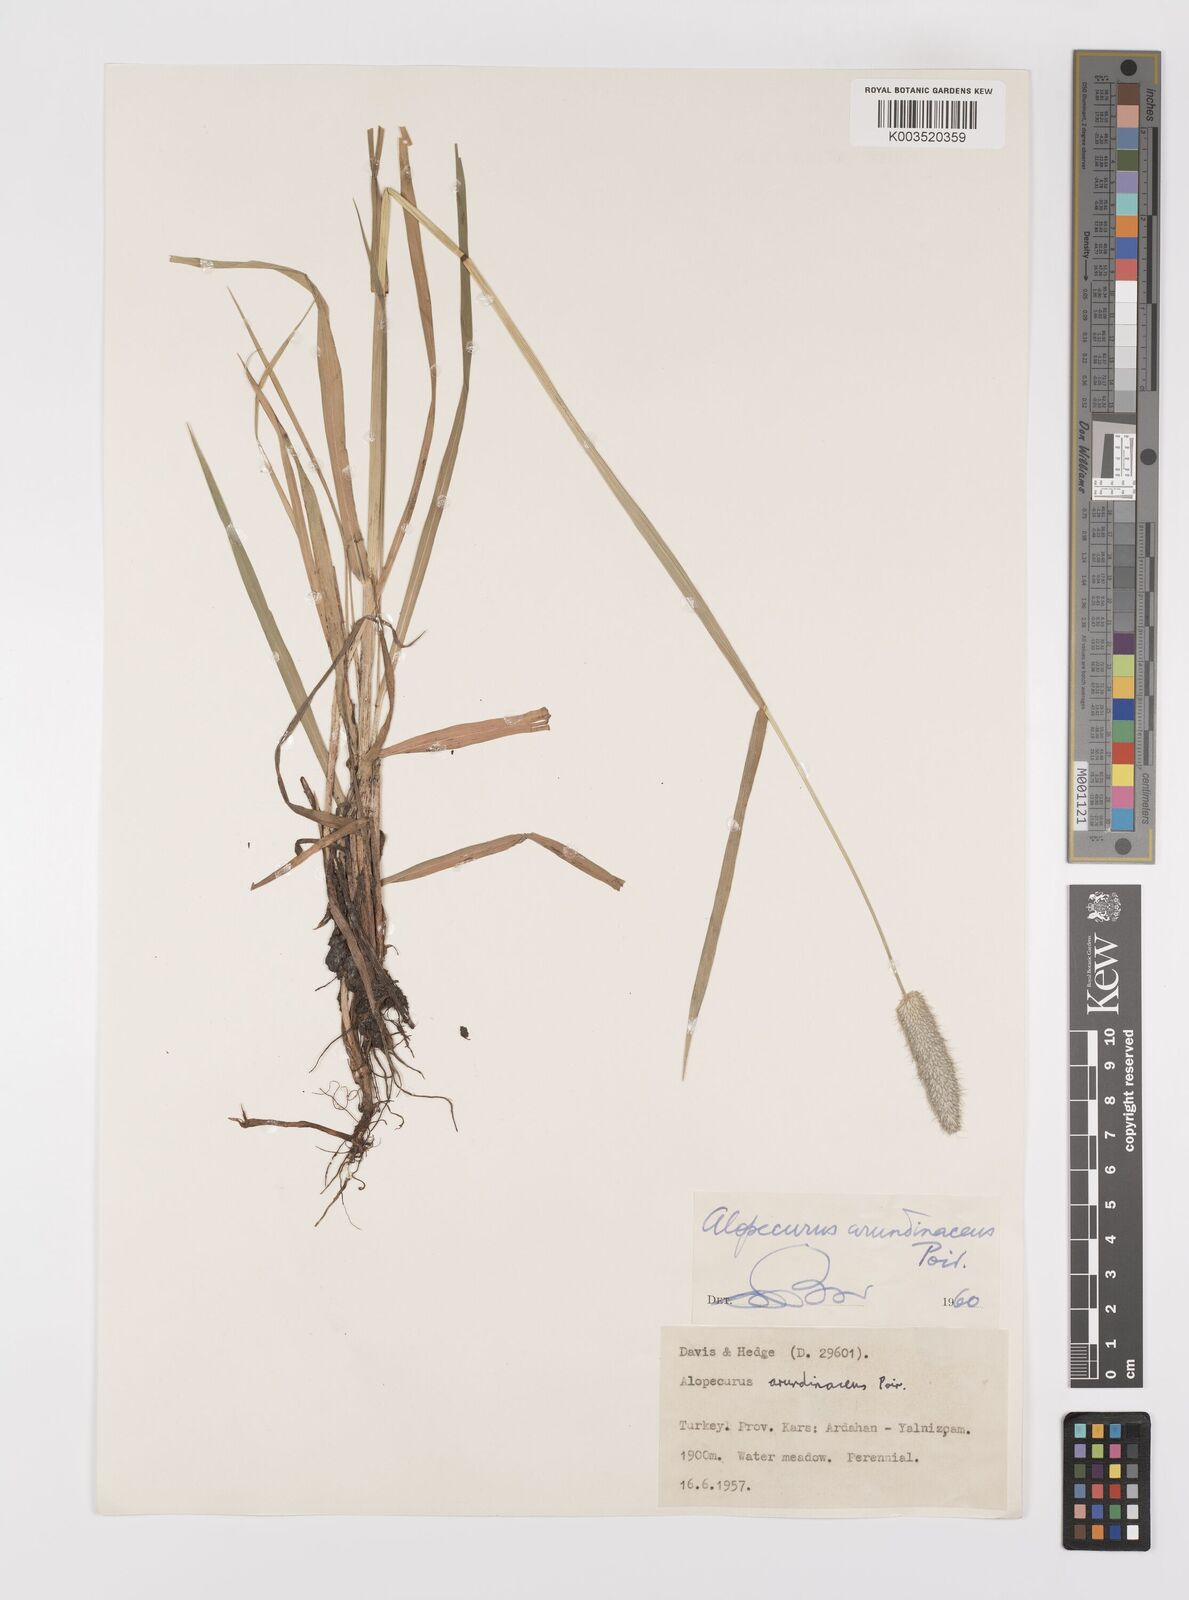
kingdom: Plantae
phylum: Tracheophyta
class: Liliopsida
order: Poales
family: Poaceae
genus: Alopecurus
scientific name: Alopecurus arundinaceus
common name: Creeping meadow foxtail
